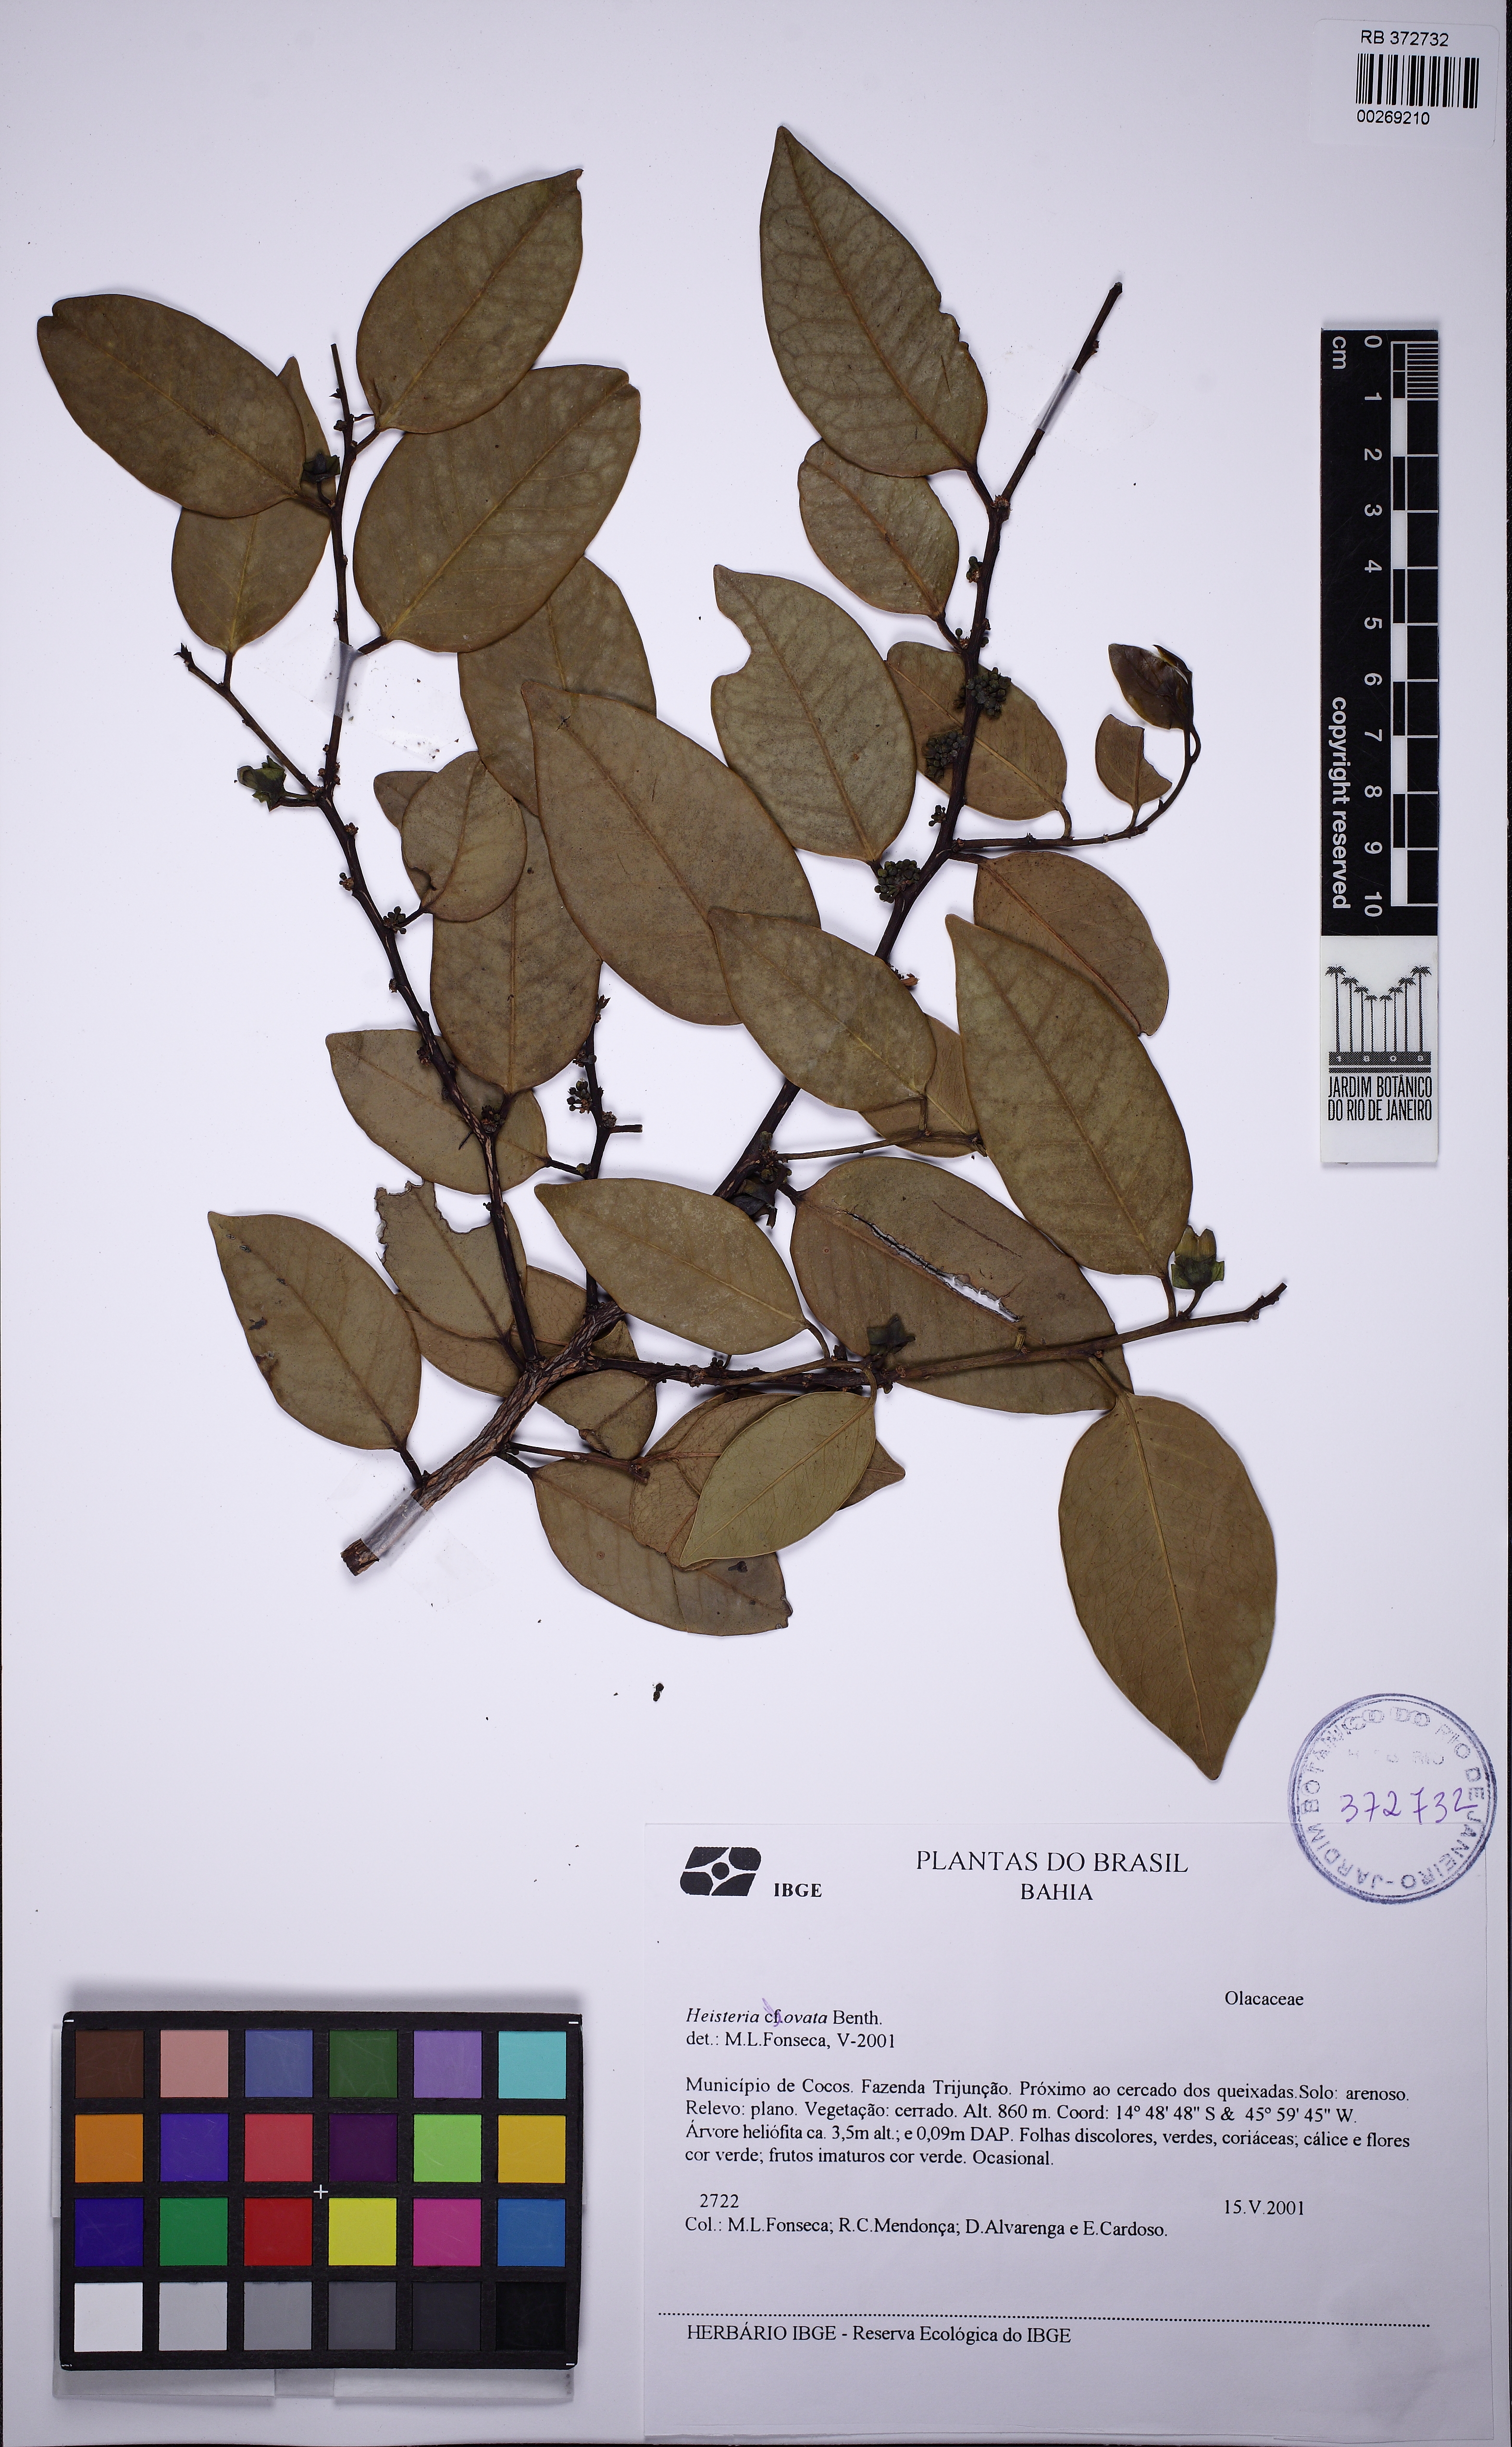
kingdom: Plantae
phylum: Tracheophyta
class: Magnoliopsida
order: Santalales
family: Erythropalaceae
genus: Heisteria
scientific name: Heisteria ovata
